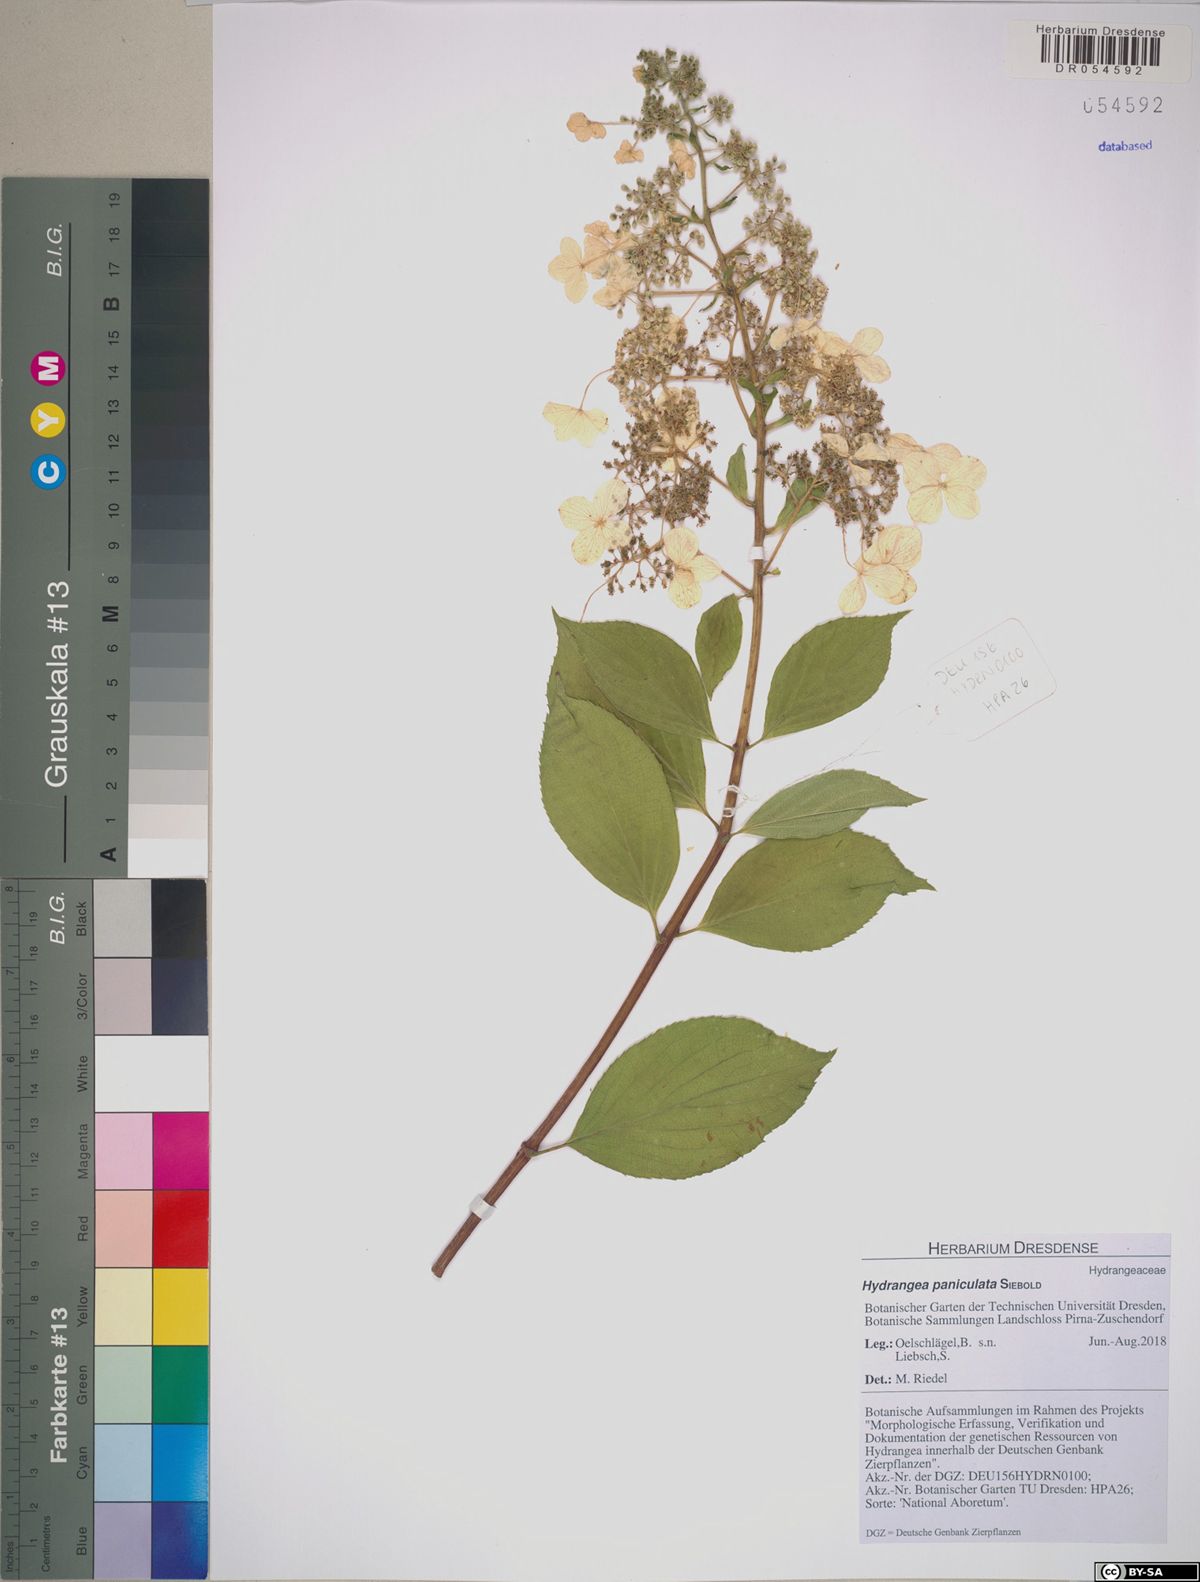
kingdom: Plantae
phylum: Tracheophyta
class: Magnoliopsida
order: Cornales
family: Hydrangeaceae
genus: Hydrangea
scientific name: Hydrangea paniculata
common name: Panicled hydrangea
